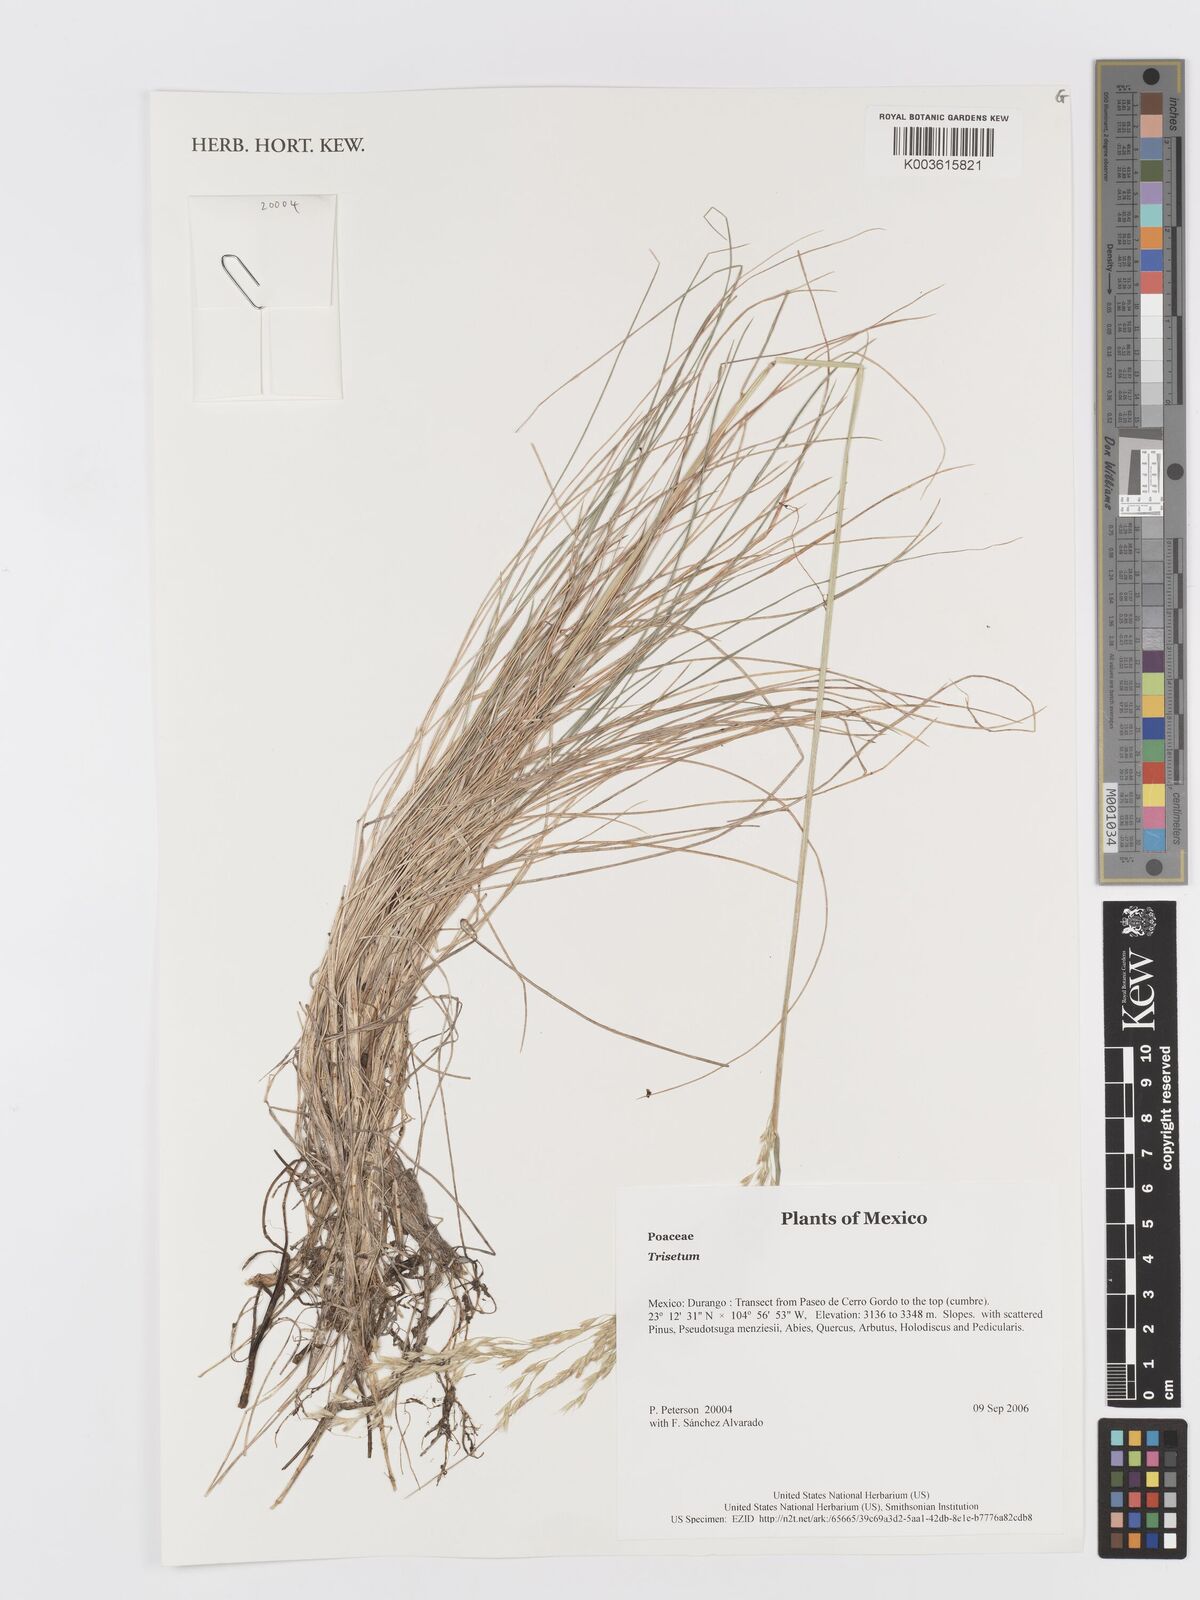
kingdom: Plantae
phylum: Tracheophyta
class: Liliopsida
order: Poales
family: Poaceae
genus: Trisetum
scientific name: Trisetum
